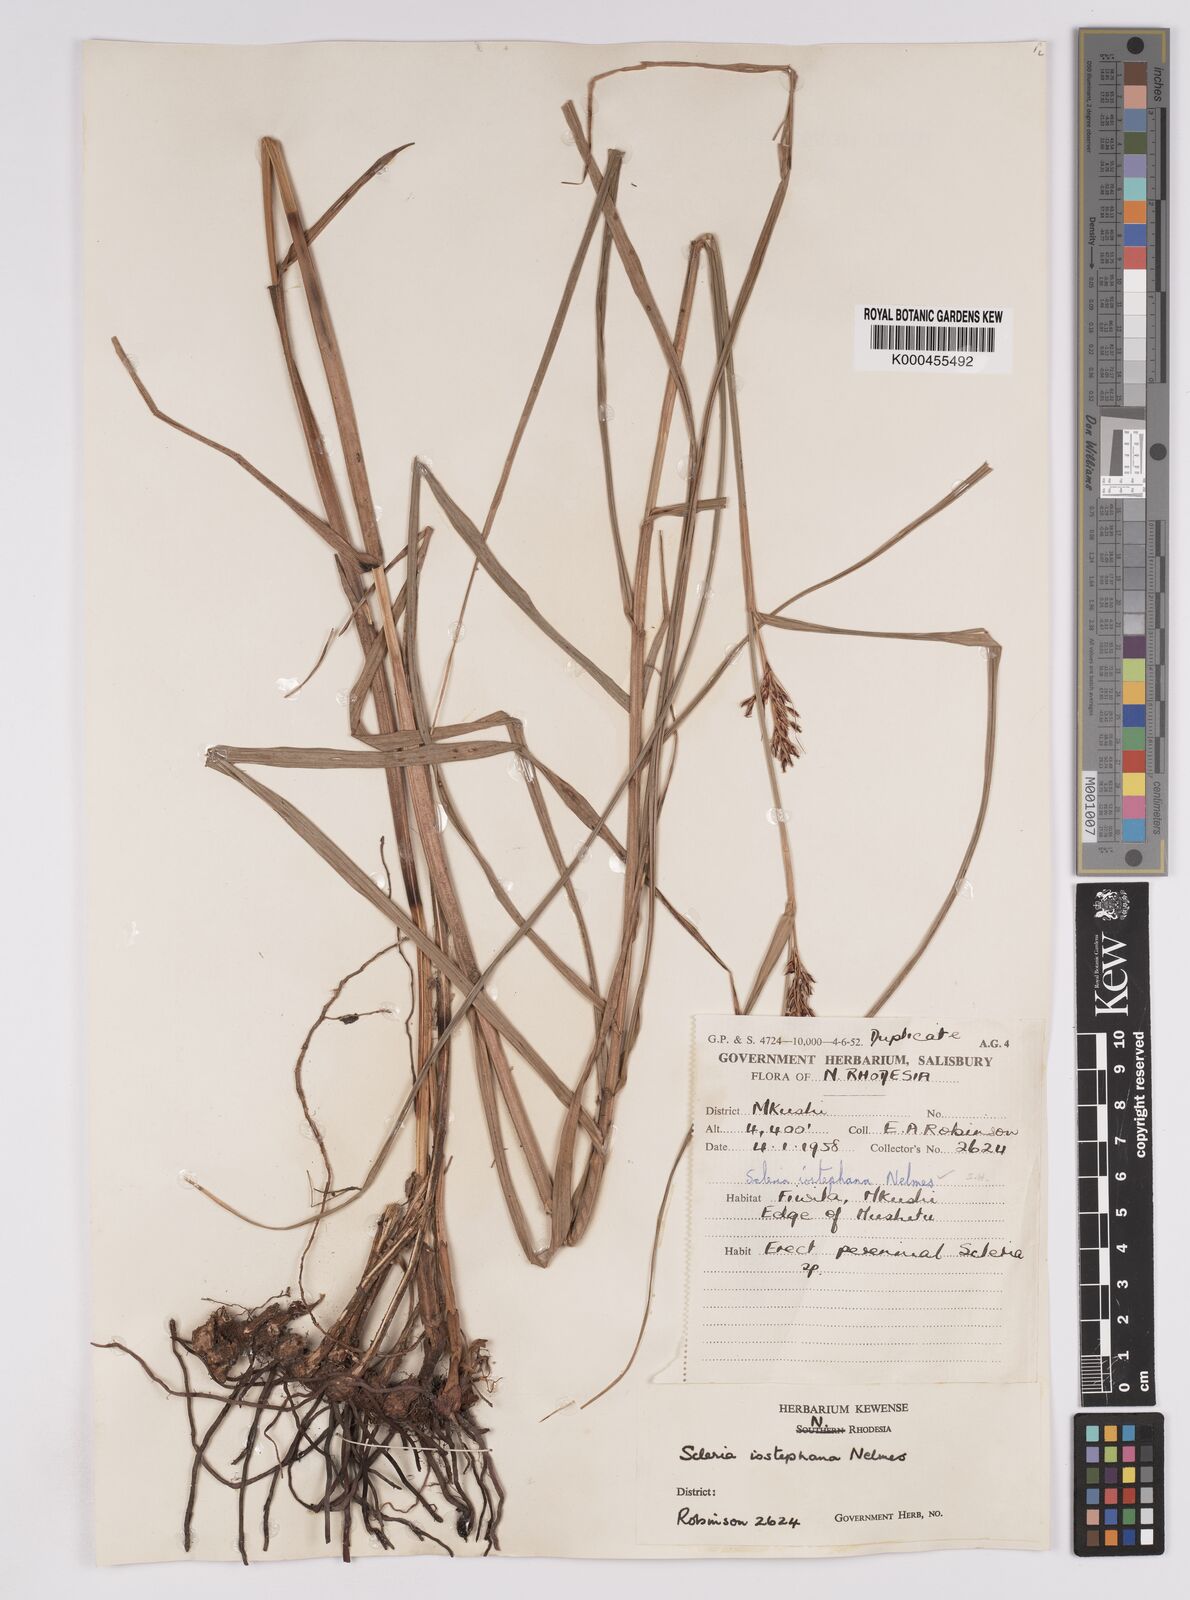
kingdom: Plantae
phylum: Tracheophyta
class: Liliopsida
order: Poales
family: Cyperaceae
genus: Scleria
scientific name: Scleria iostephana
